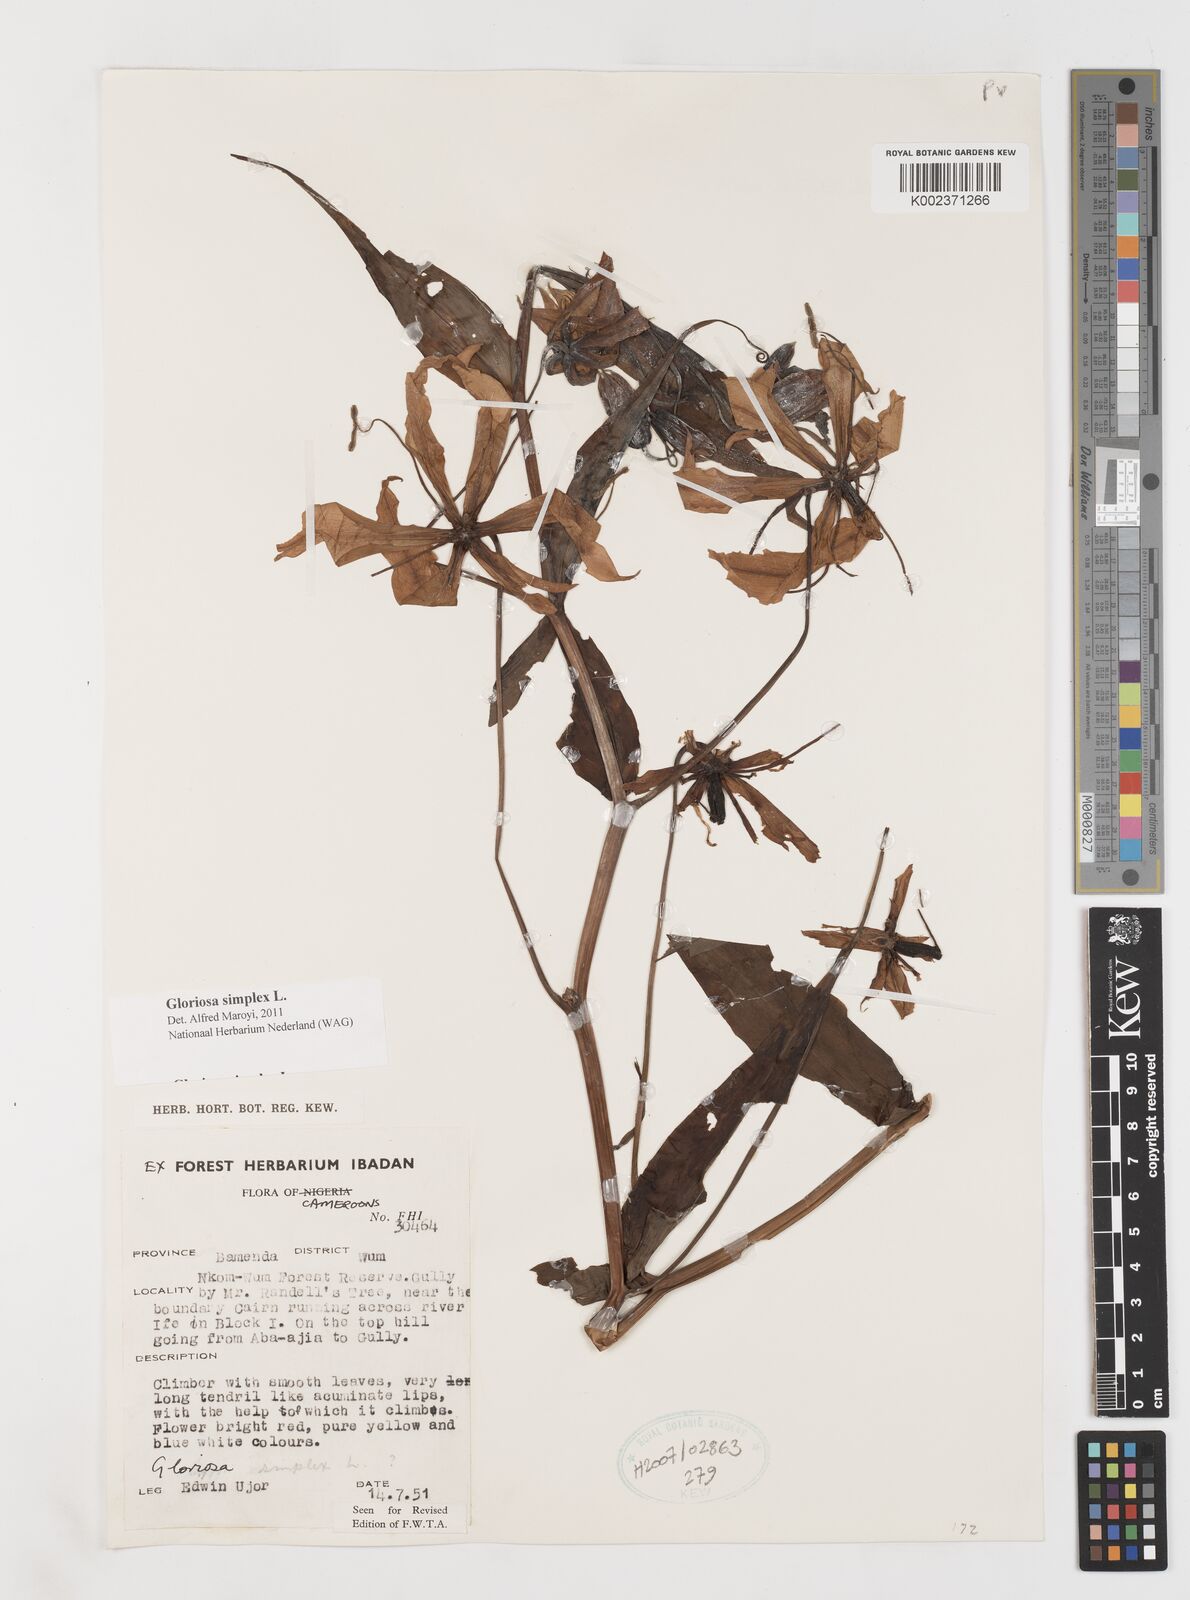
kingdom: Plantae
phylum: Tracheophyta
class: Liliopsida
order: Liliales
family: Colchicaceae
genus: Gloriosa
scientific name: Gloriosa simplex
